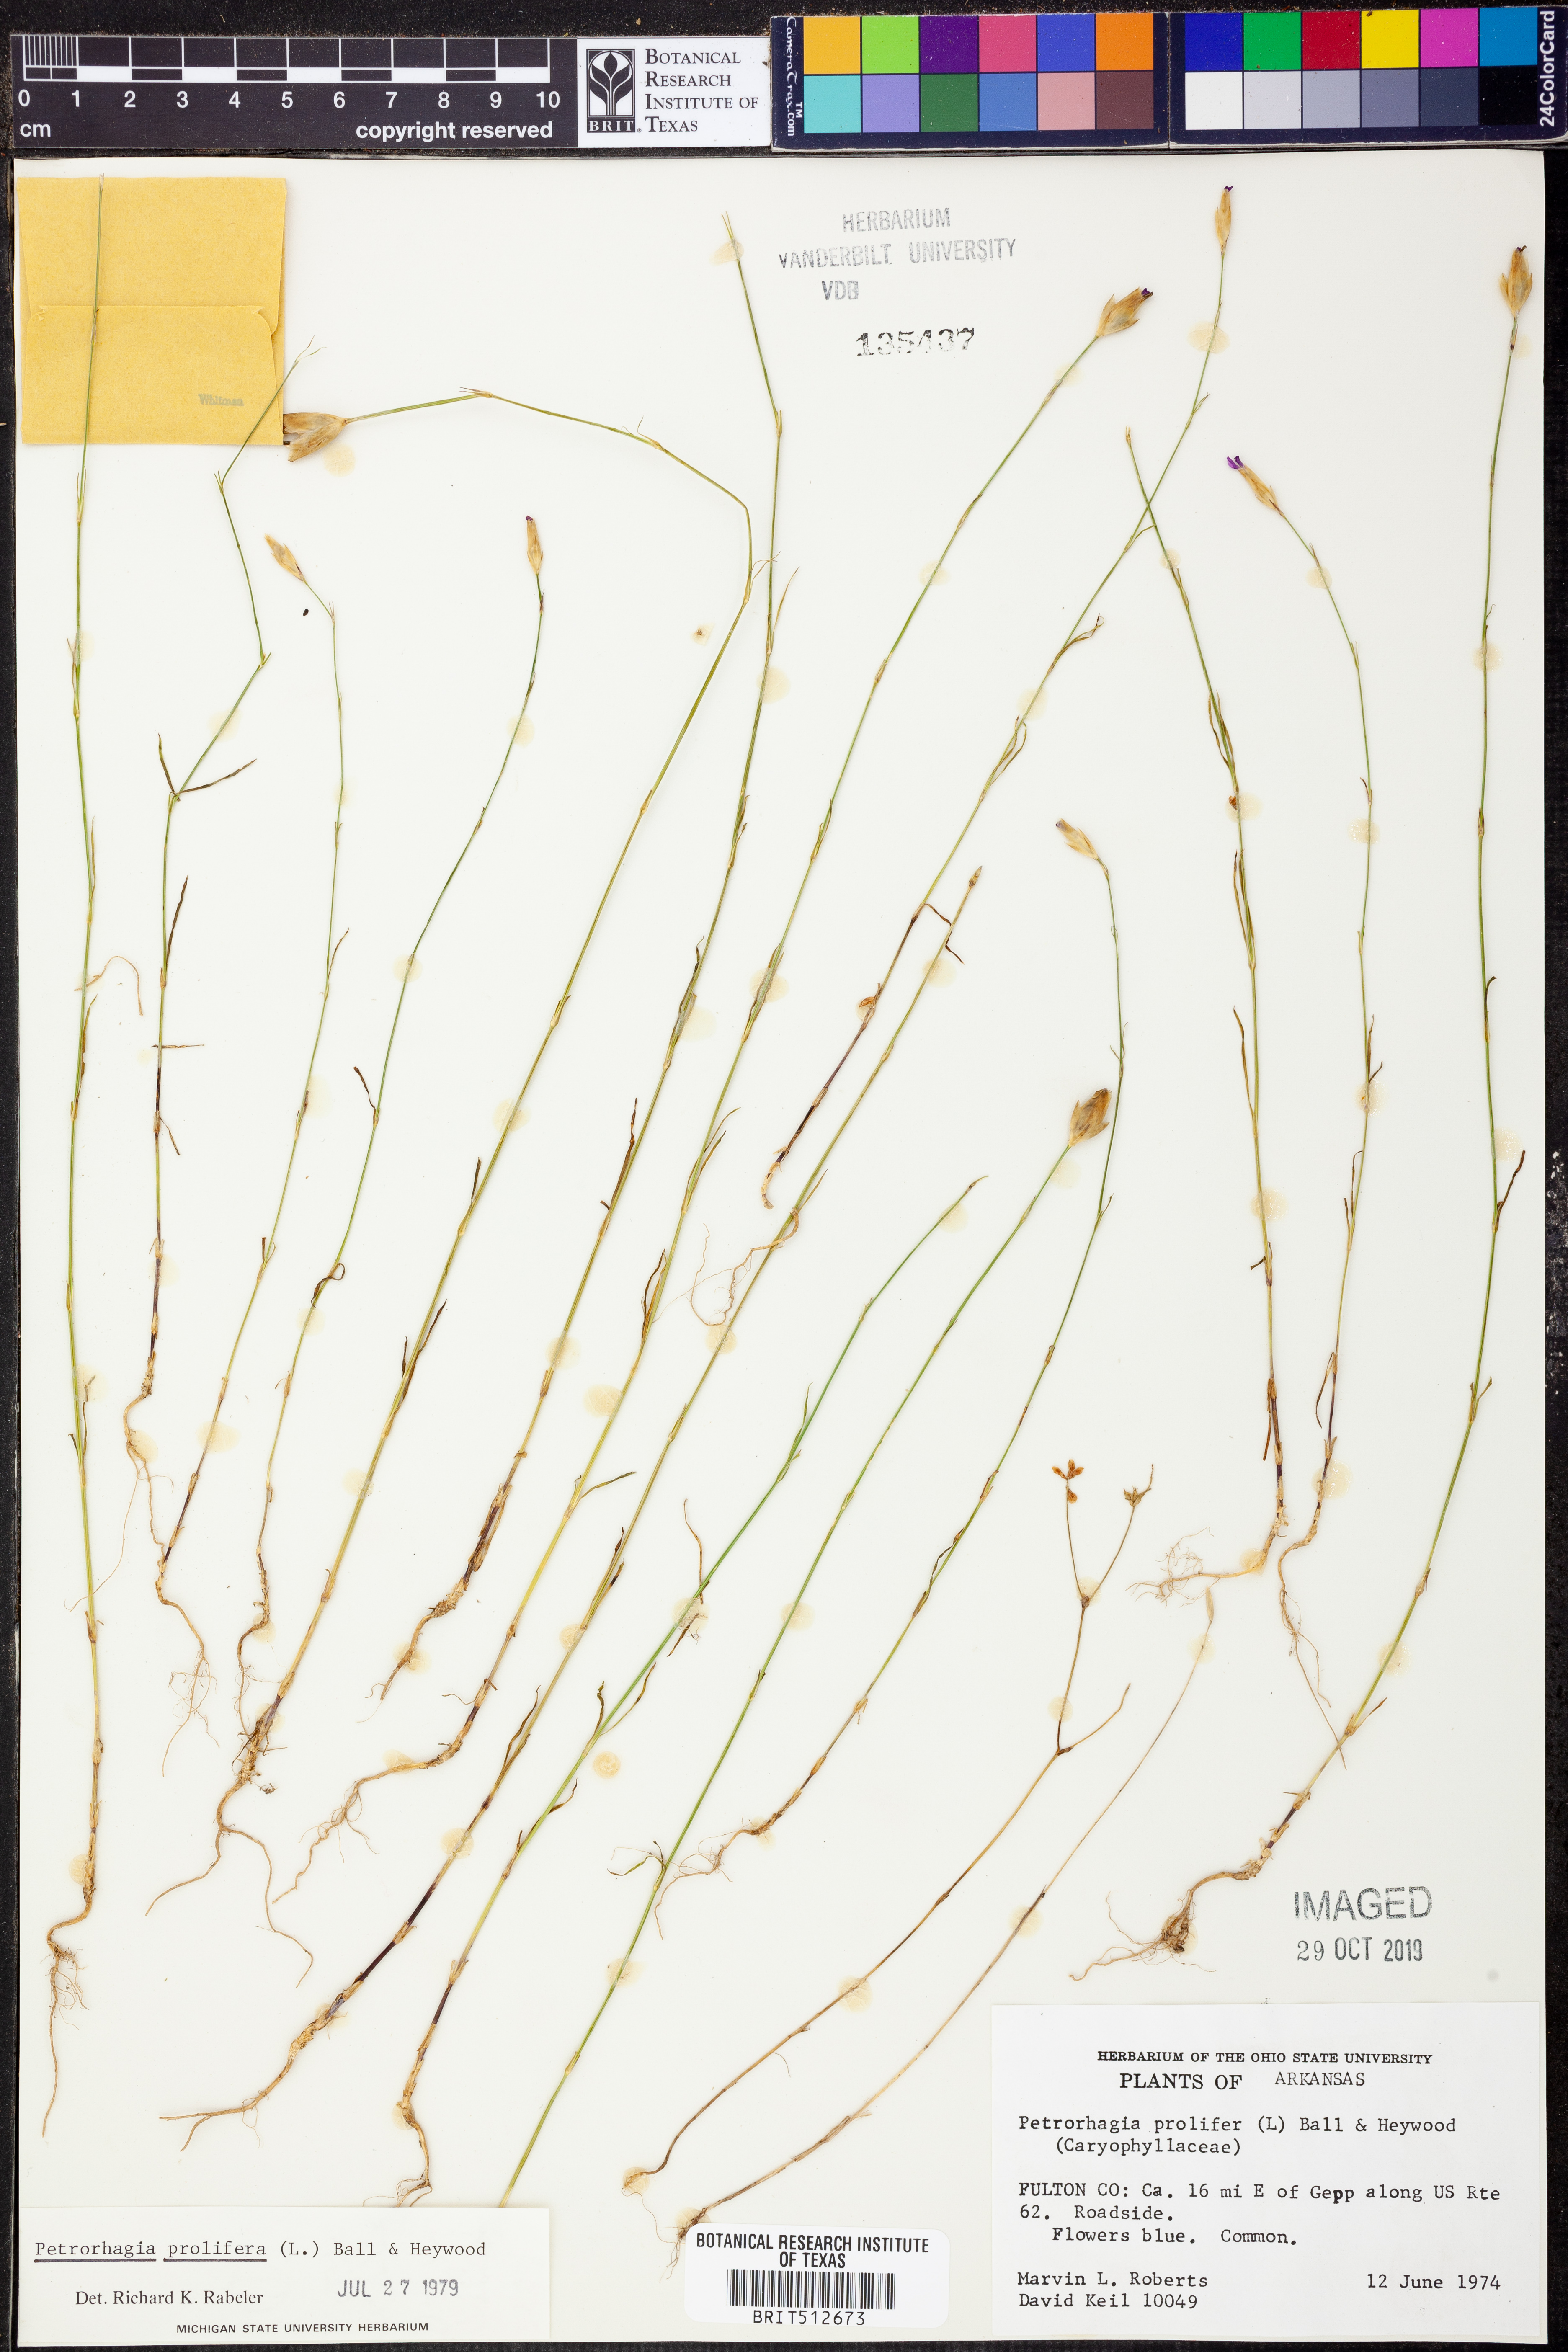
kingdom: Plantae
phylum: Tracheophyta
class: Magnoliopsida
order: Caryophyllales
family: Caryophyllaceae
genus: Petrorhagia
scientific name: Petrorhagia prolifera
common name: Proliferous pink
